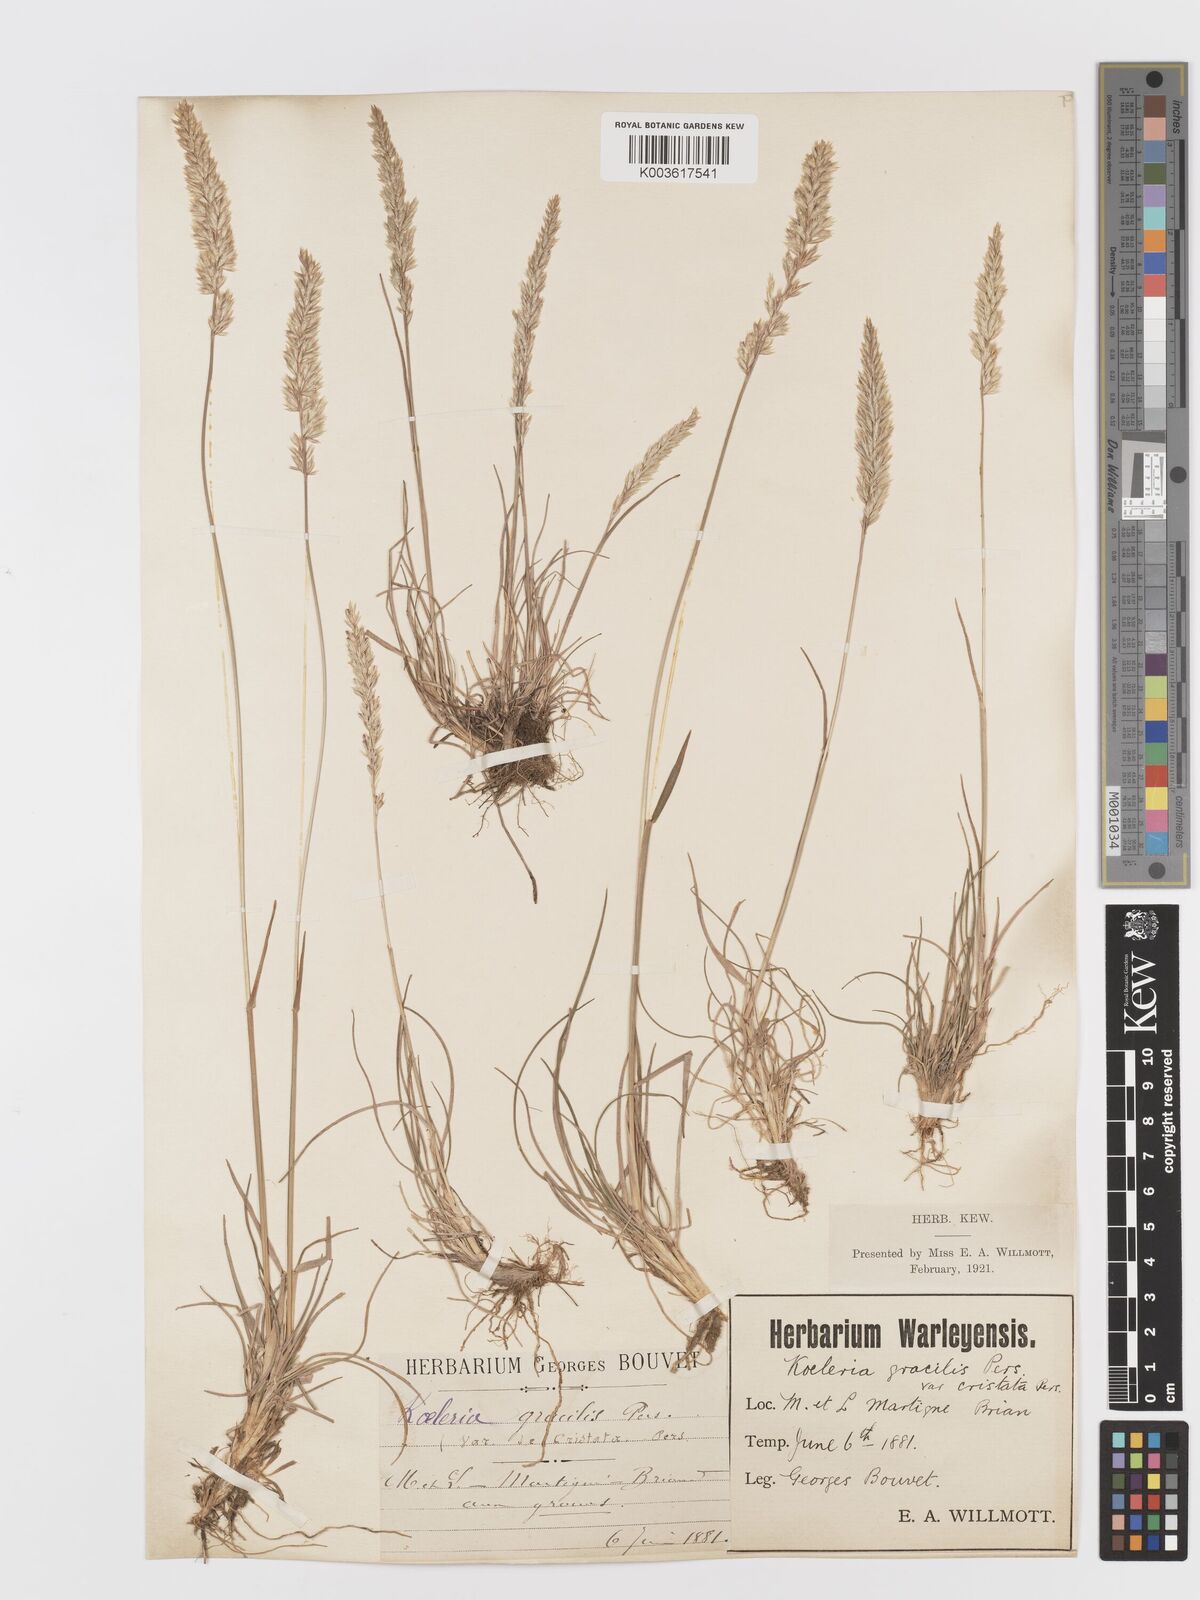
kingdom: Plantae
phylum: Tracheophyta
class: Liliopsida
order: Poales
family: Poaceae
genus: Koeleria
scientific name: Koeleria
